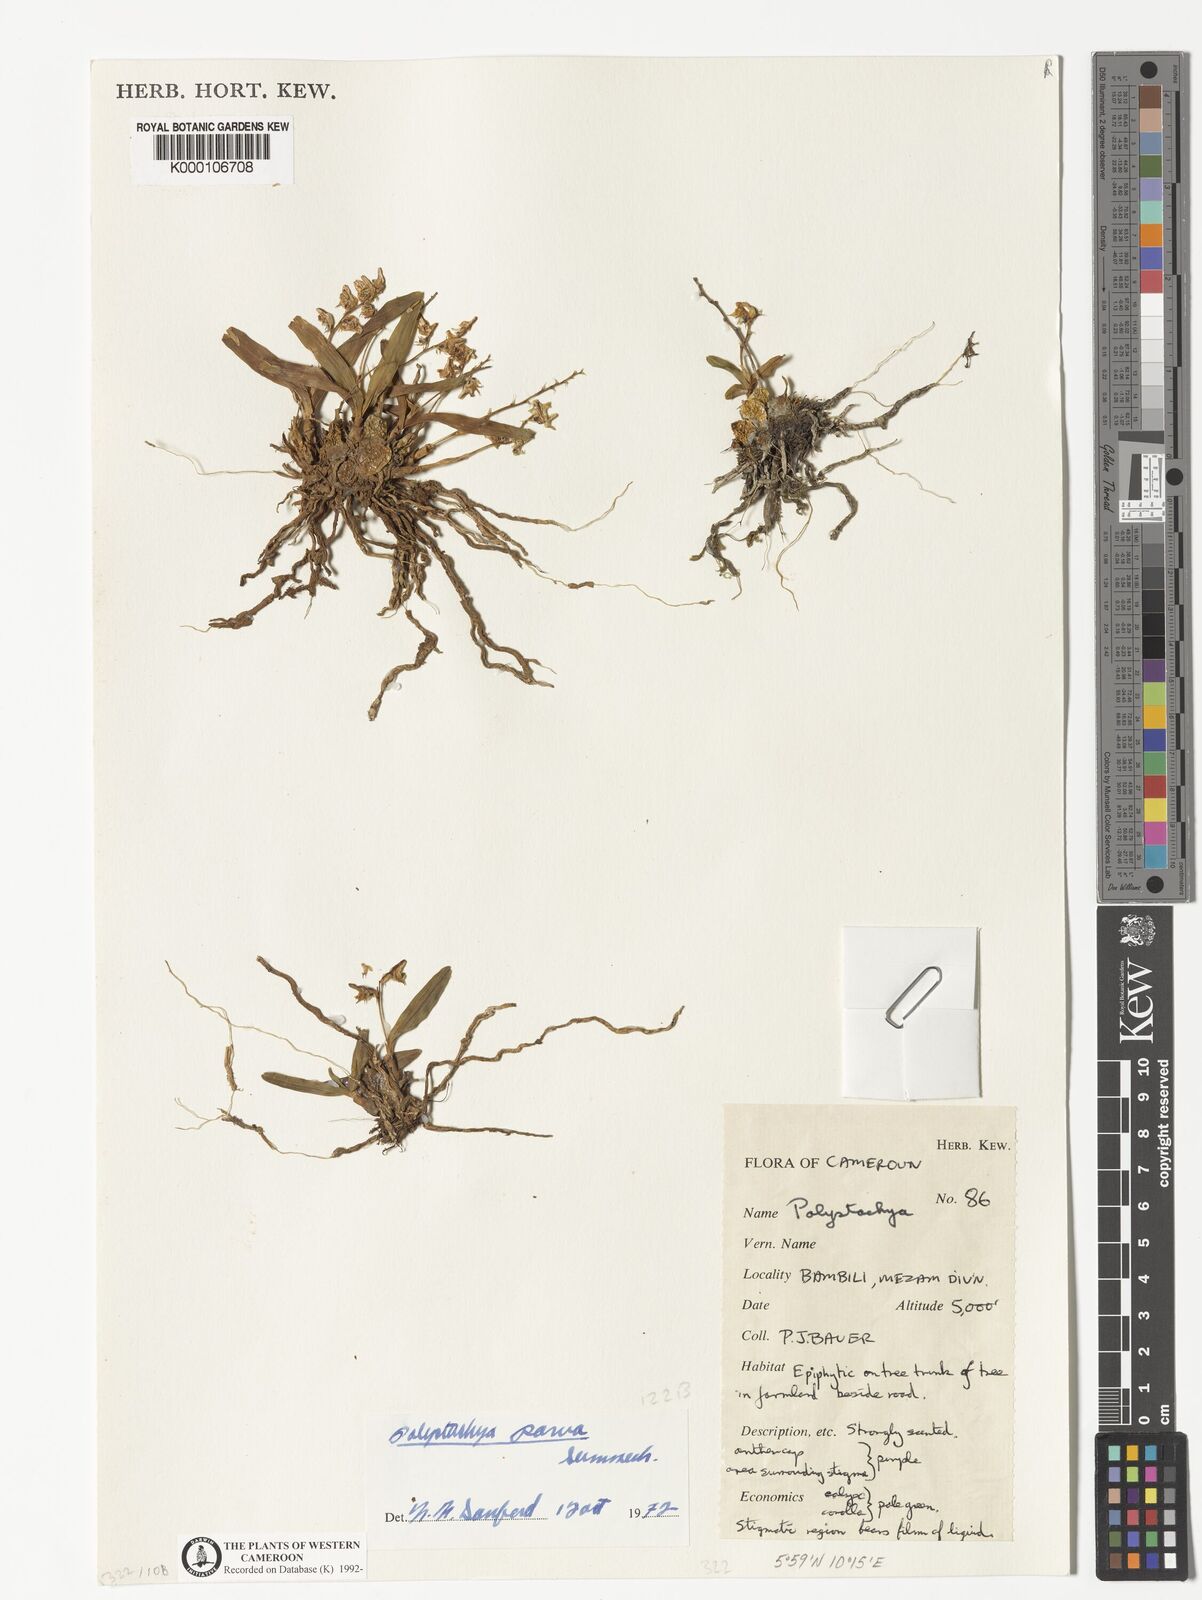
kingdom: Plantae
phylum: Tracheophyta
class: Liliopsida
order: Asparagales
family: Orchidaceae
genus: Polystachya
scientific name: Polystachya parva
